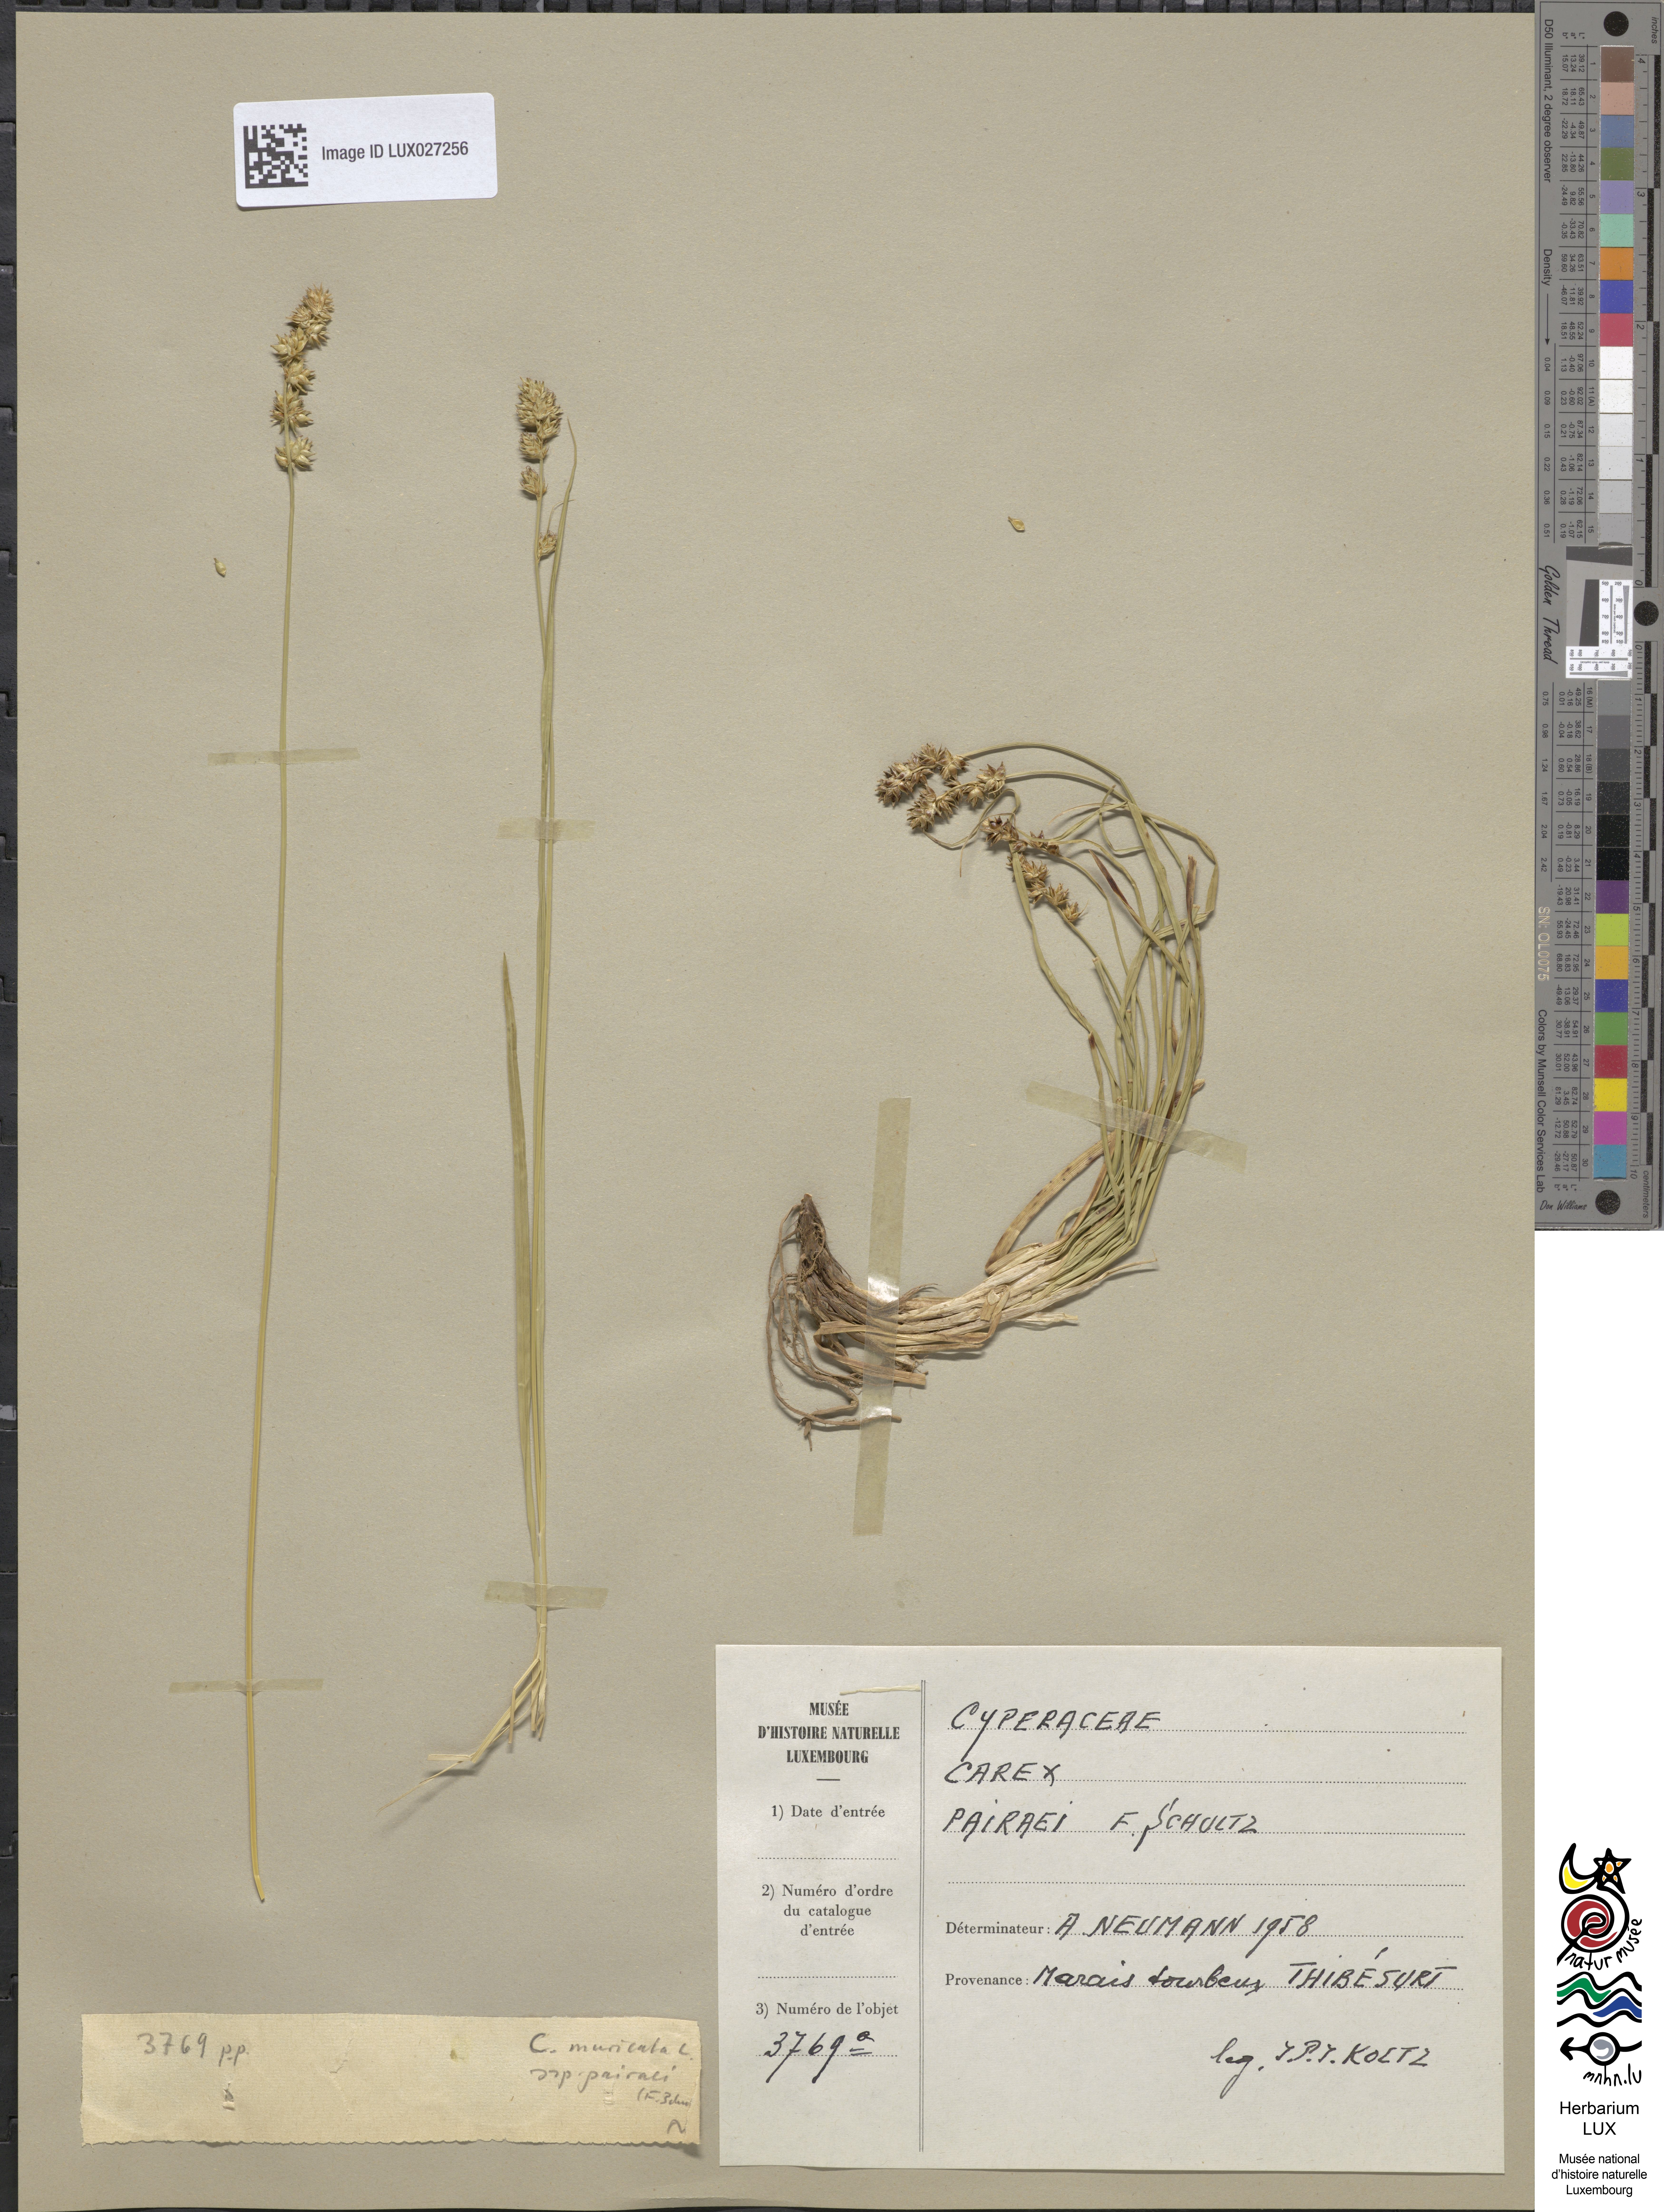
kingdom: Plantae
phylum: Tracheophyta
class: Liliopsida
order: Poales
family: Cyperaceae
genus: Carex
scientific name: Carex pairae
